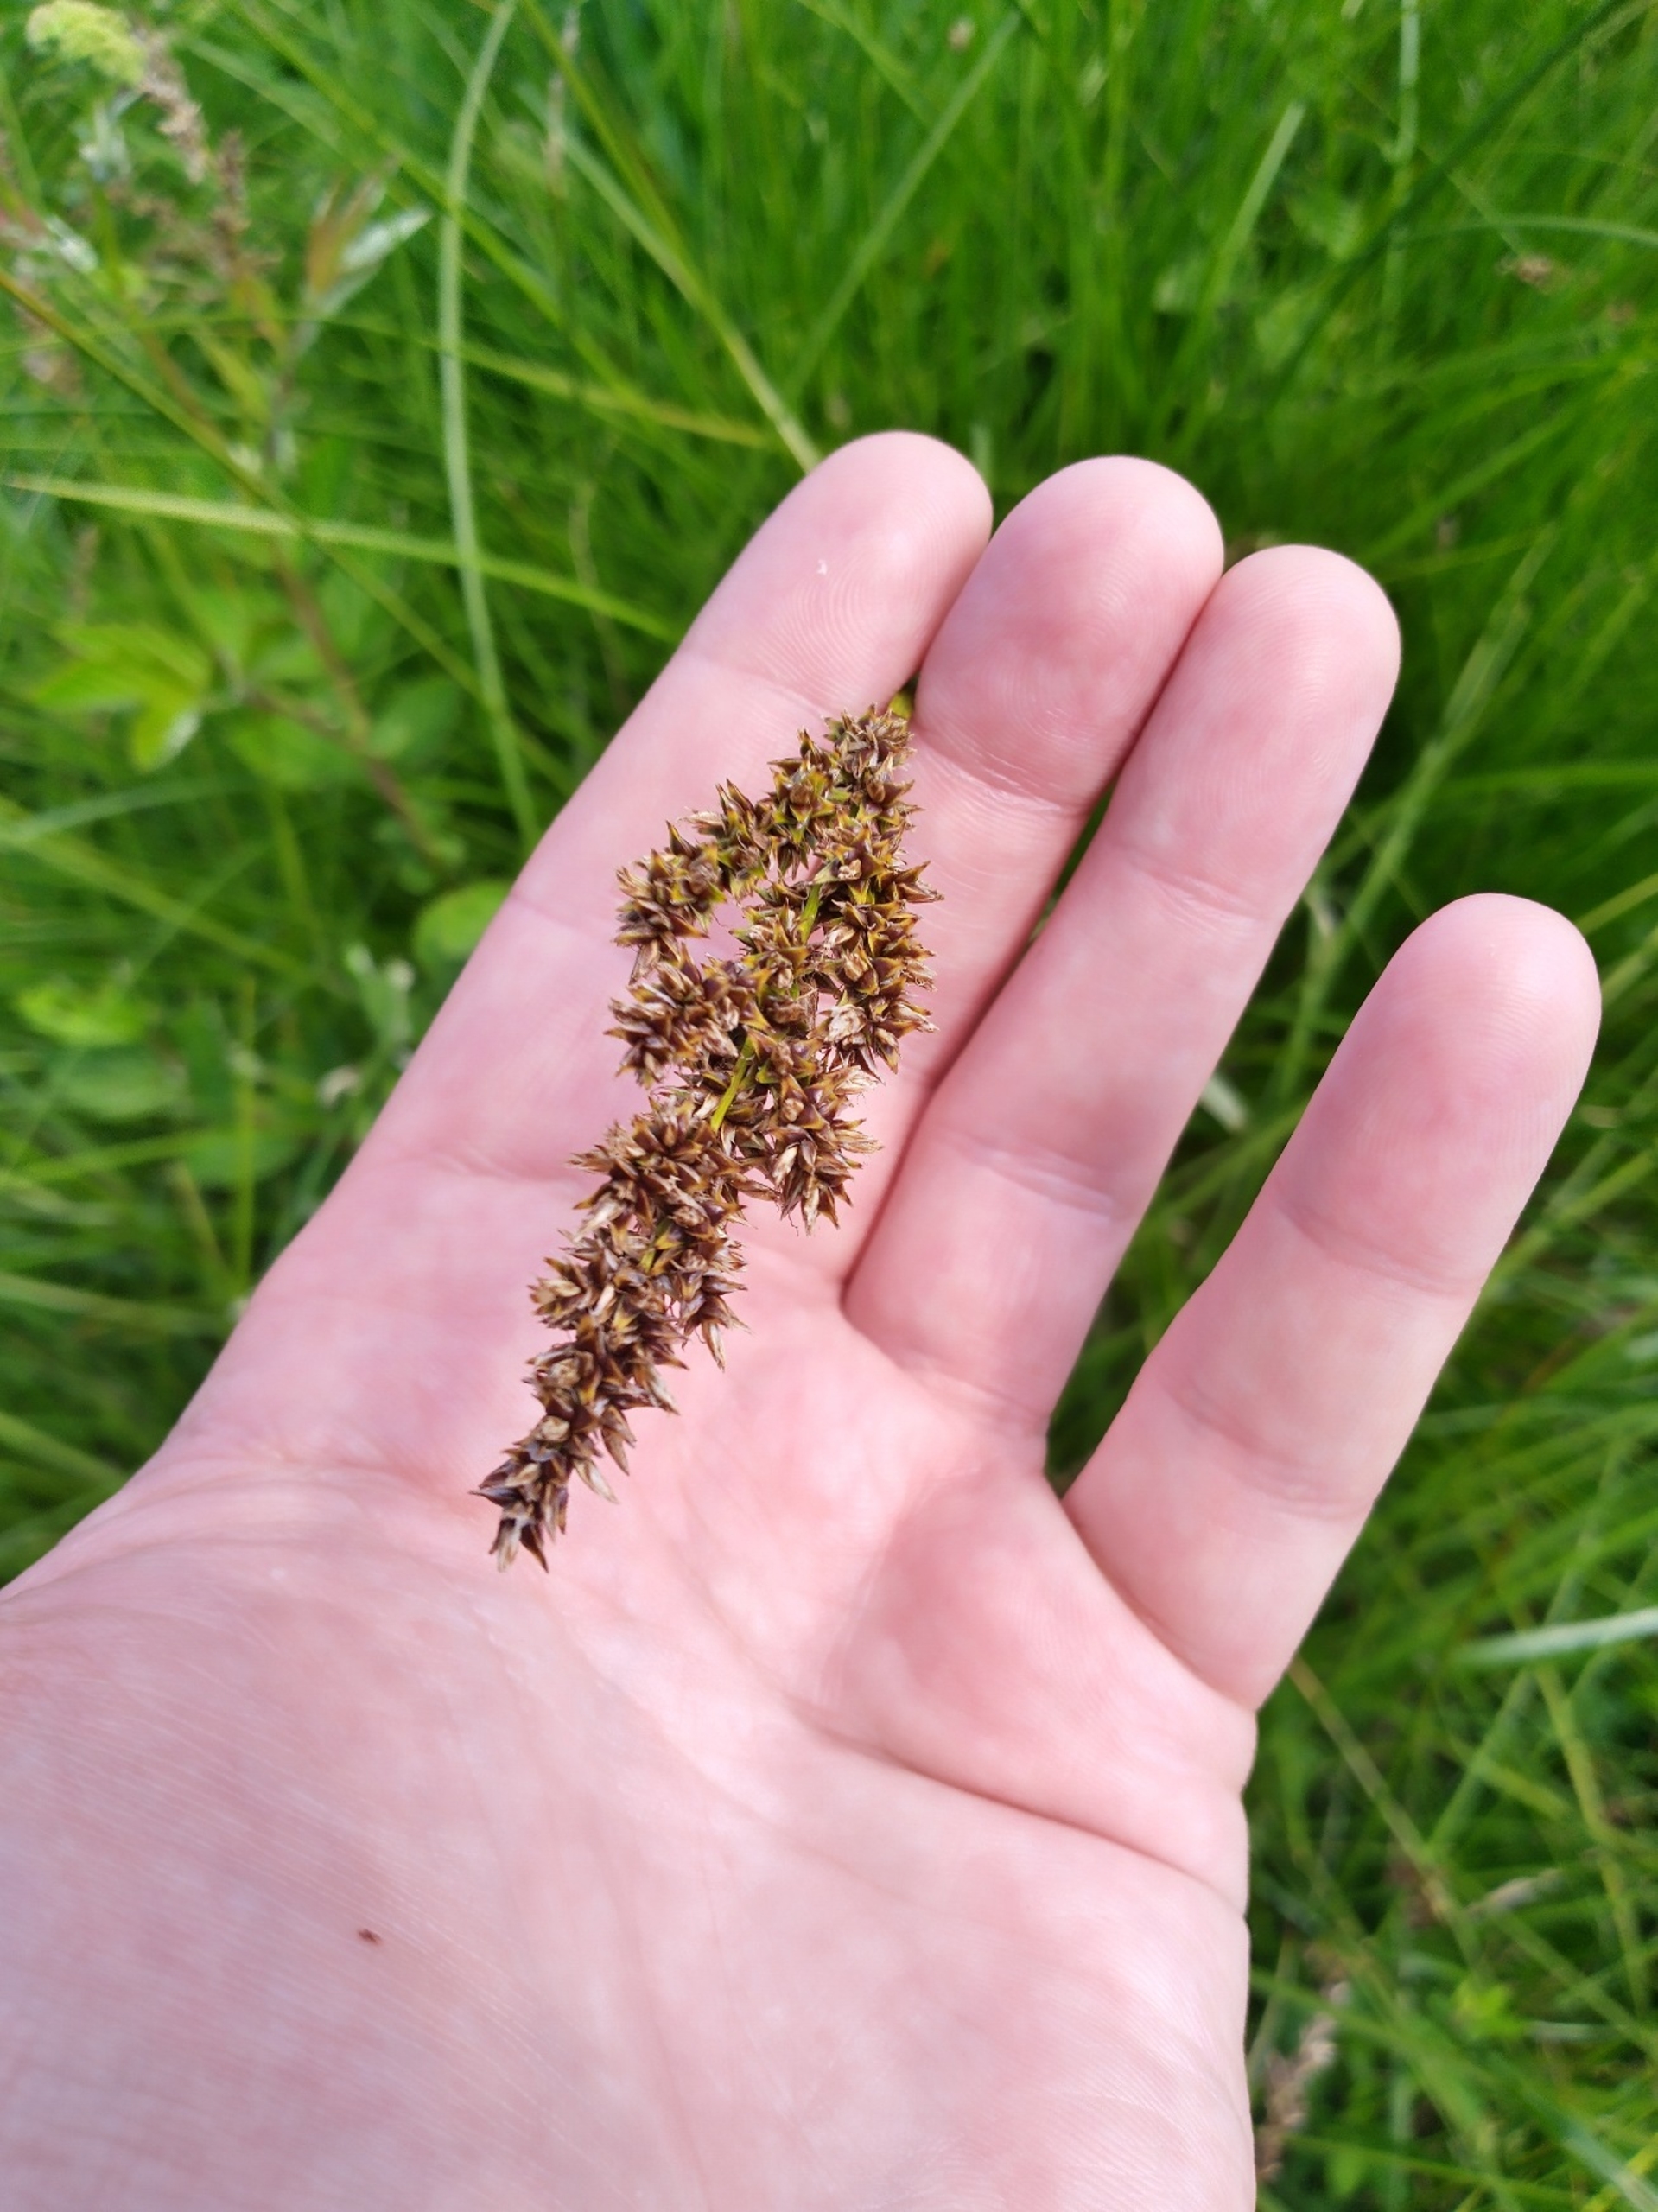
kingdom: Plantae
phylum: Tracheophyta
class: Liliopsida
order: Poales
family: Cyperaceae
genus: Carex
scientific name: Carex paniculata
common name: Top-star
